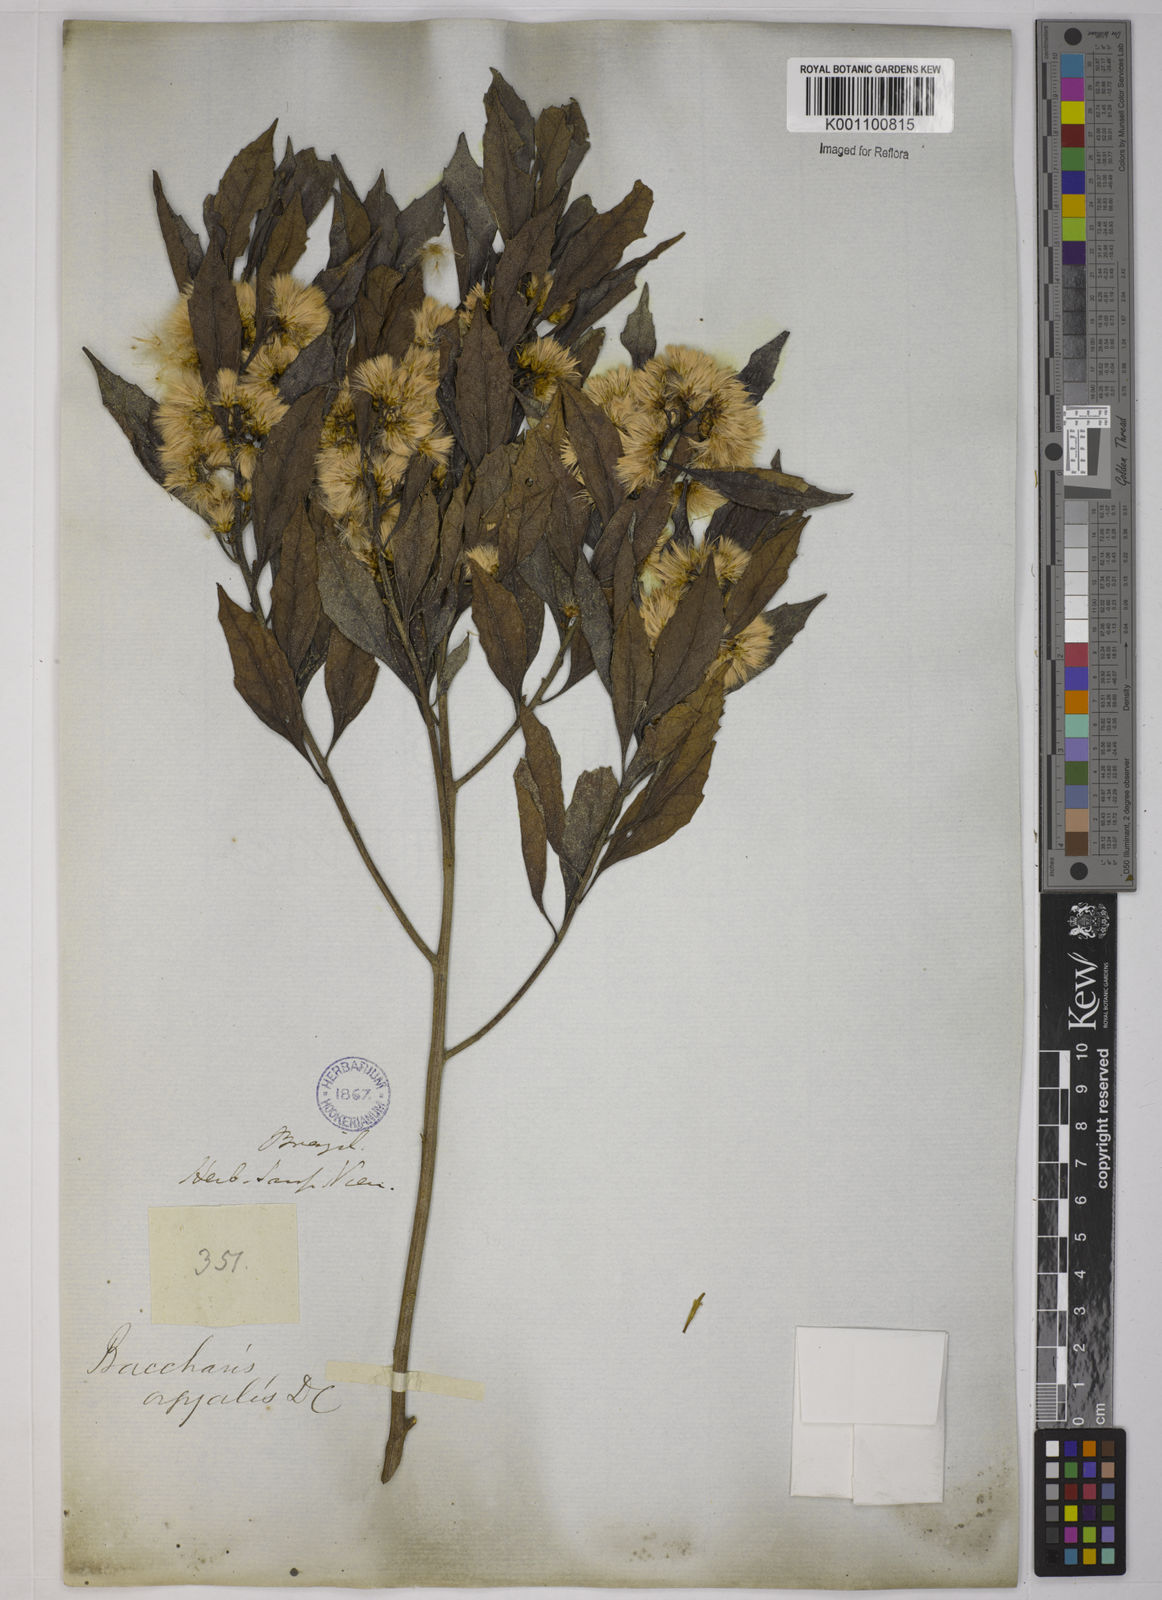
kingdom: Plantae
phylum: Tracheophyta
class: Magnoliopsida
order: Asterales
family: Asteraceae
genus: Baccharis
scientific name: Baccharis dentata
